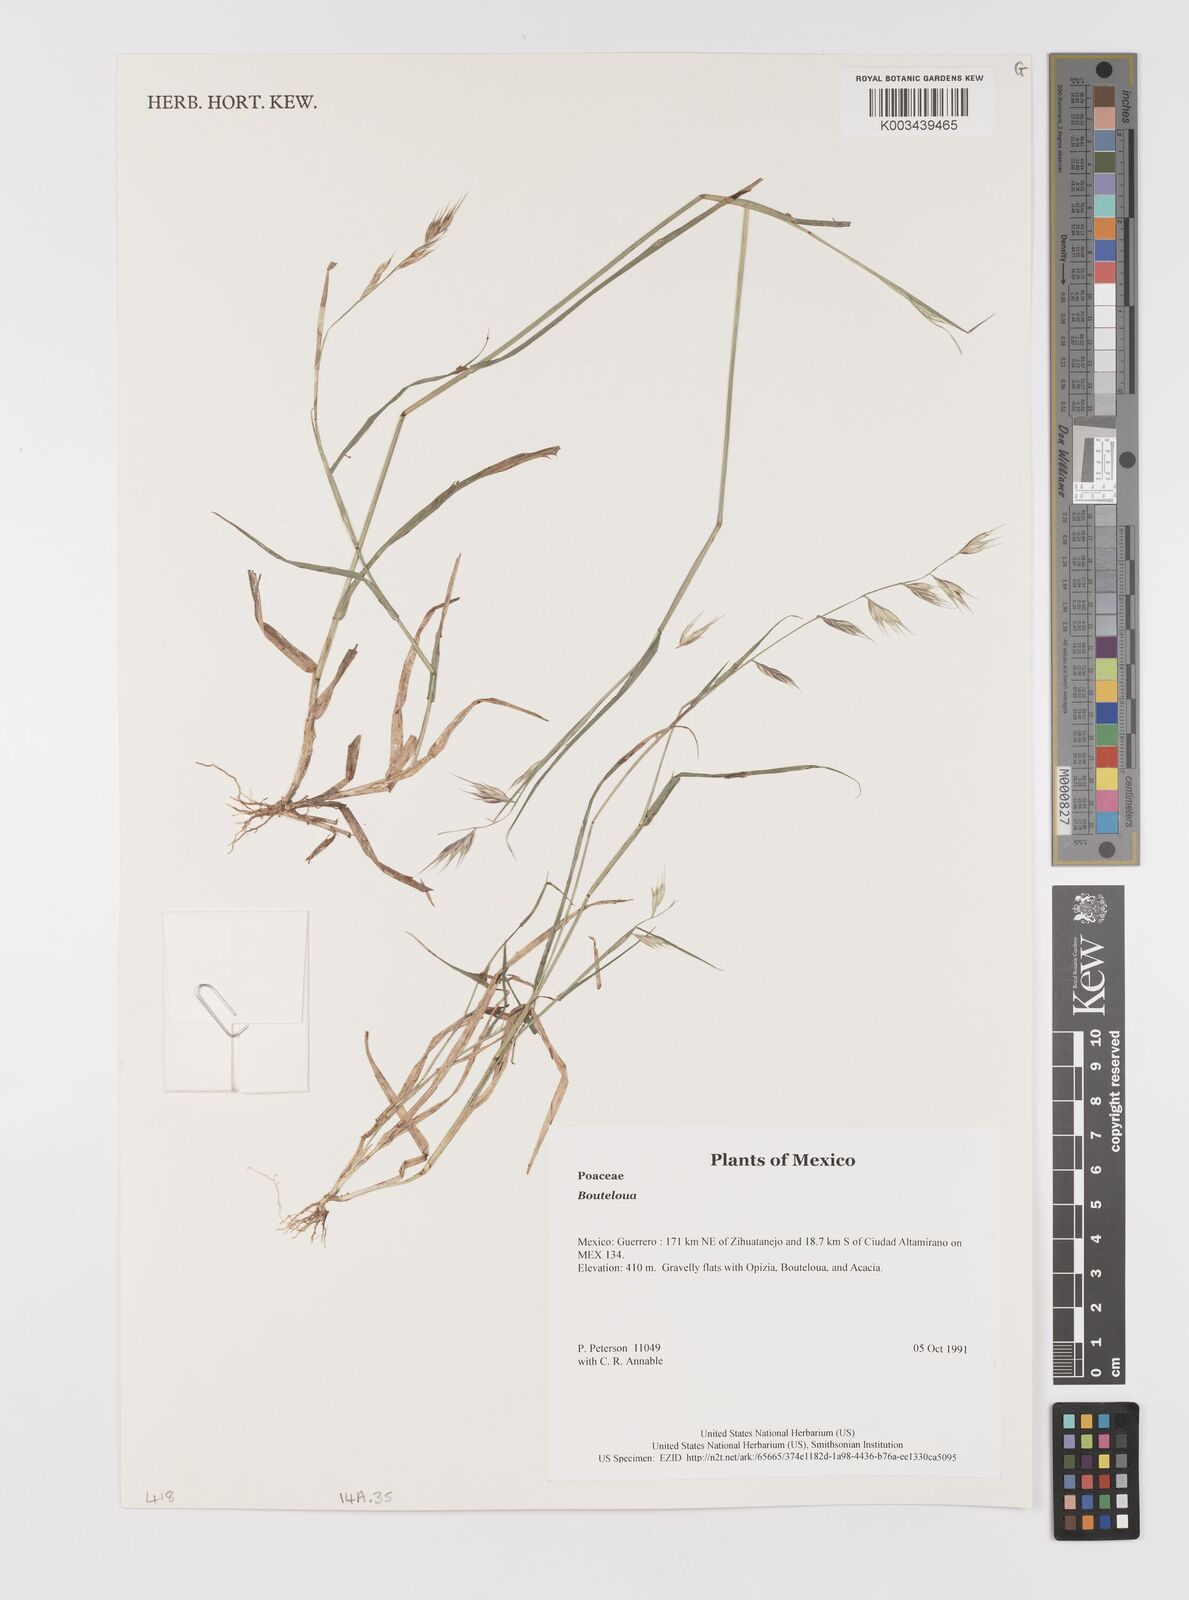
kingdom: Plantae
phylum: Tracheophyta
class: Liliopsida
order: Poales
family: Poaceae
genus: Bouteloua
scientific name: Bouteloua
